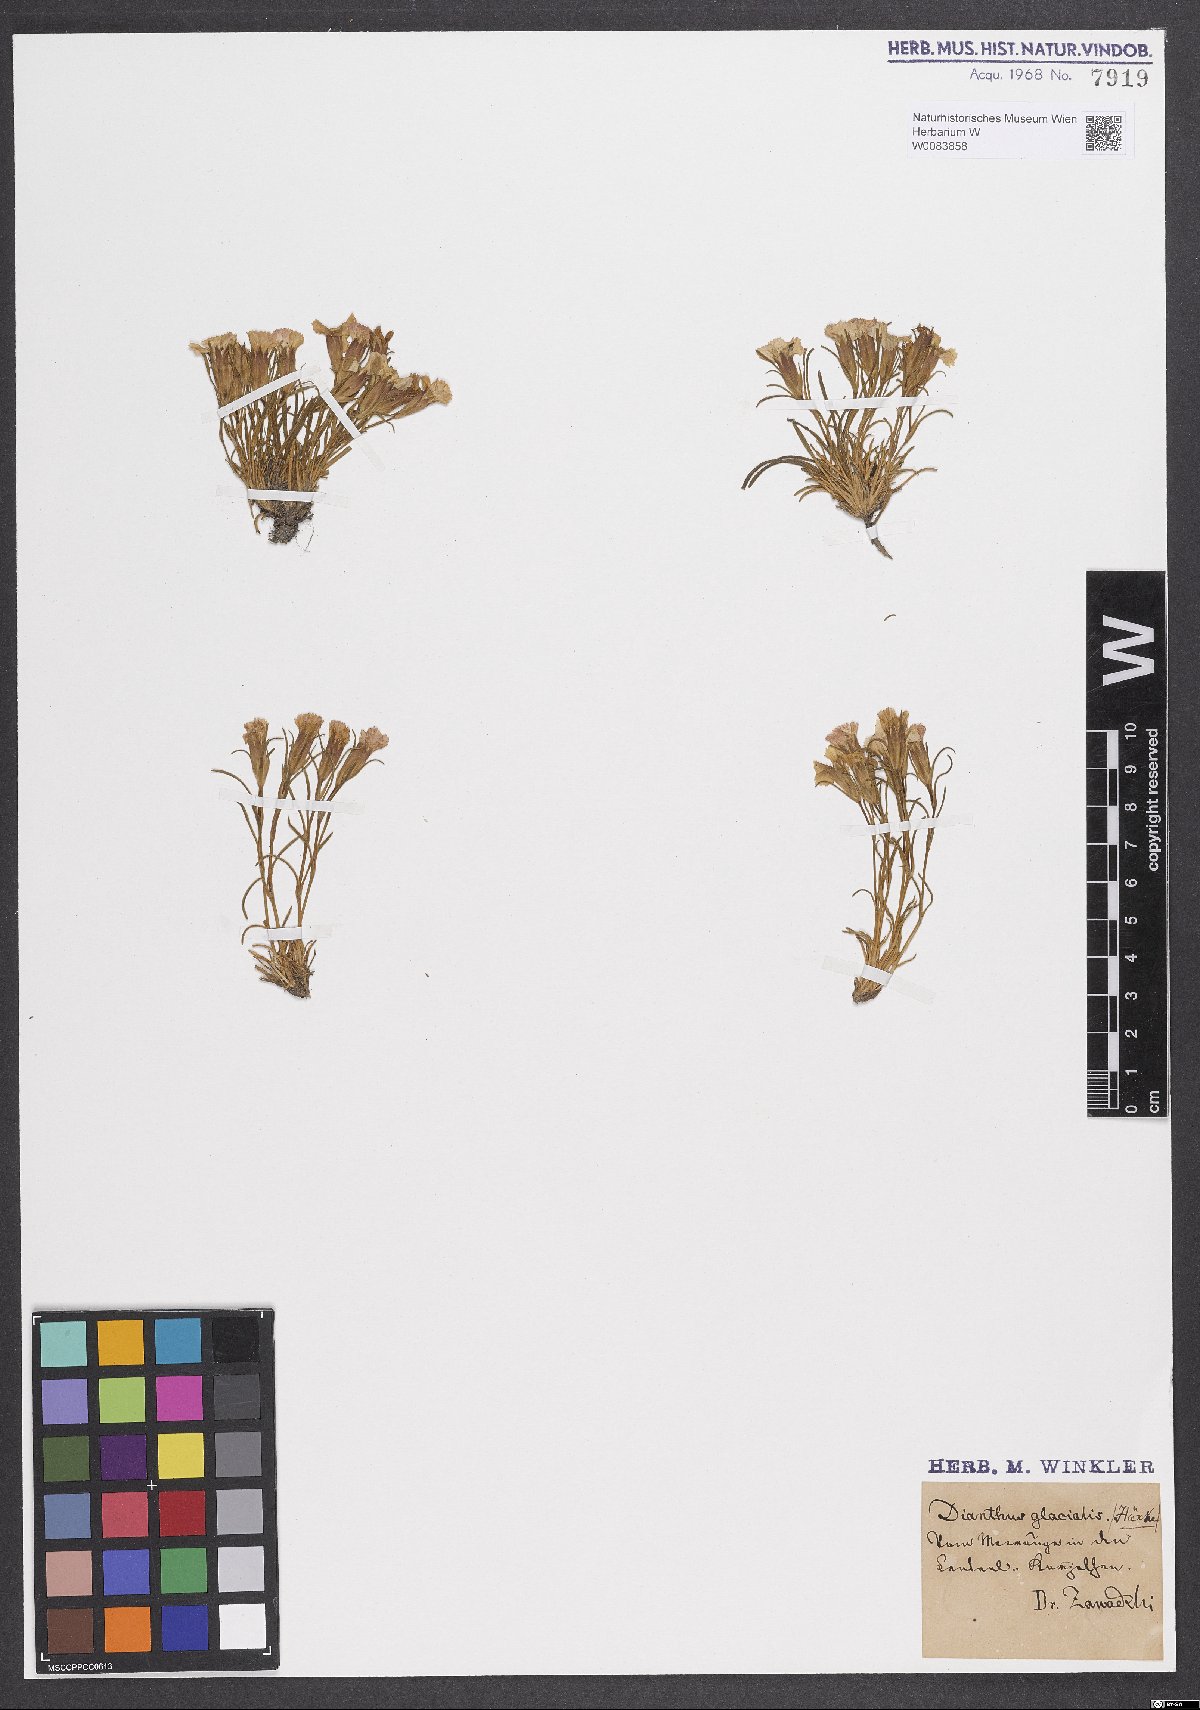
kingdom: Plantae
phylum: Tracheophyta
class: Magnoliopsida
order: Caryophyllales
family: Caryophyllaceae
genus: Dianthus
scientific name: Dianthus glacialis
